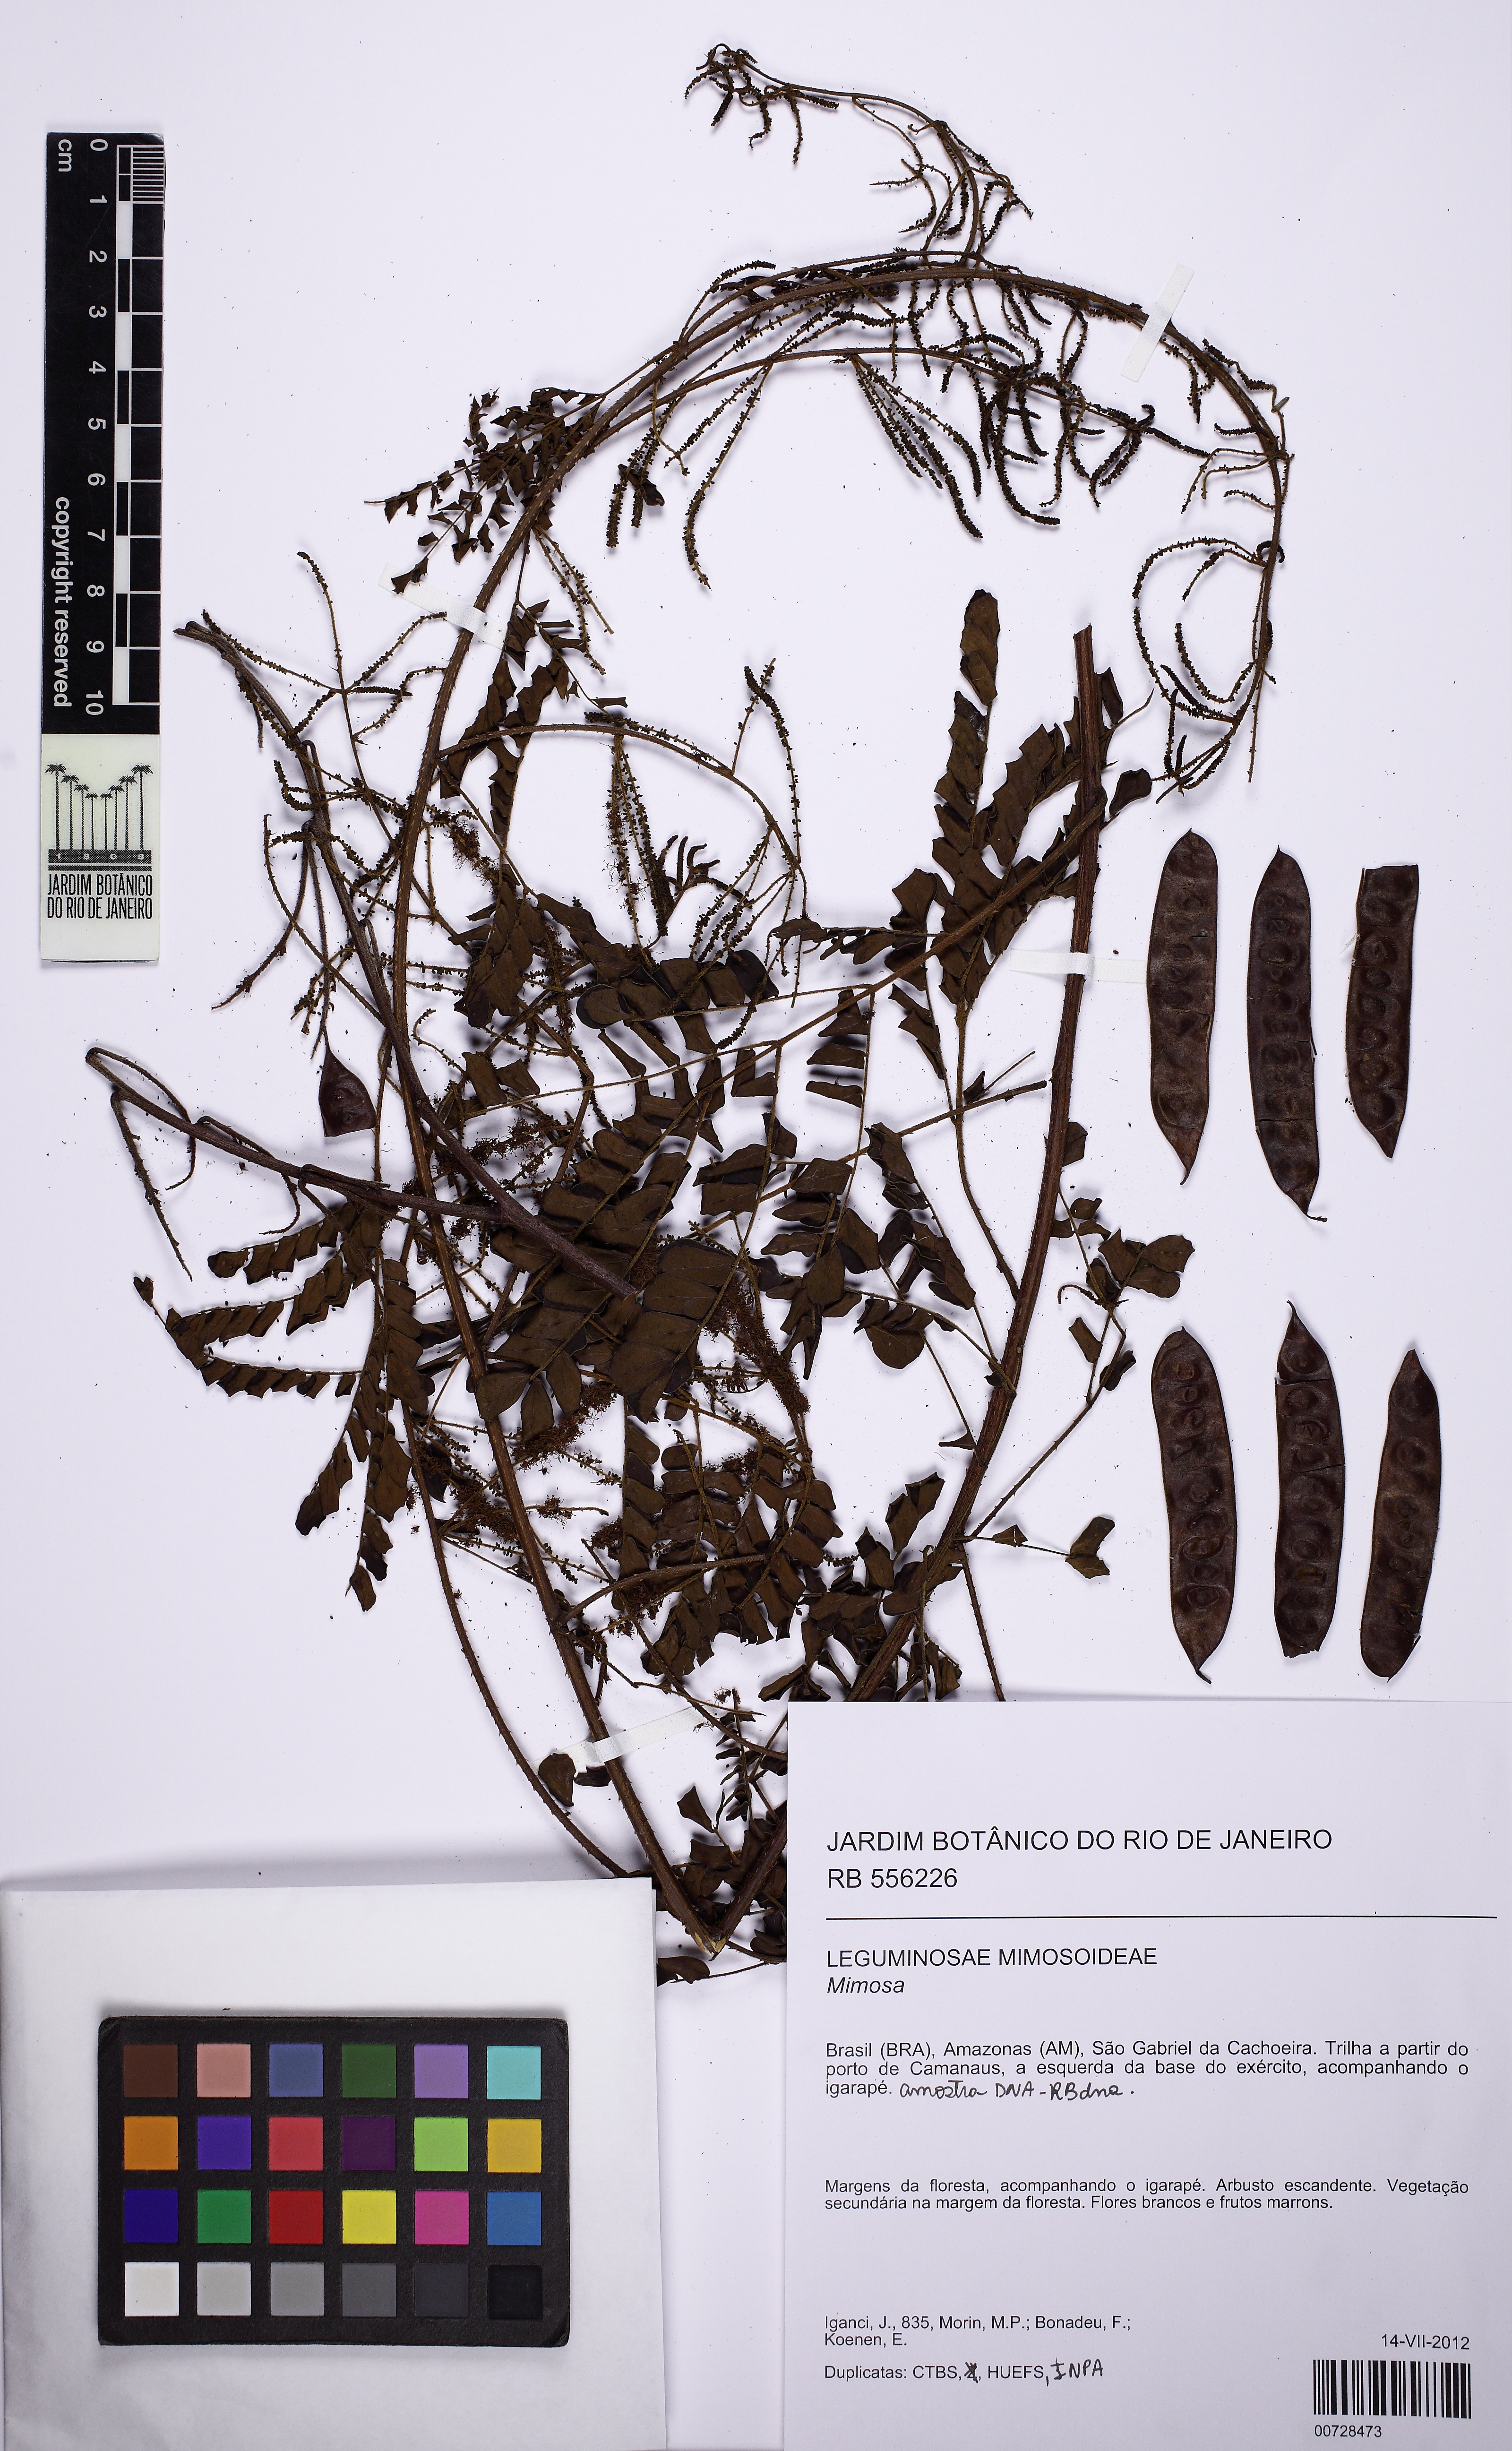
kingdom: Plantae
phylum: Tracheophyta
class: Magnoliopsida
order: Fabales
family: Fabaceae
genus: Mimosa
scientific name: Mimosa
